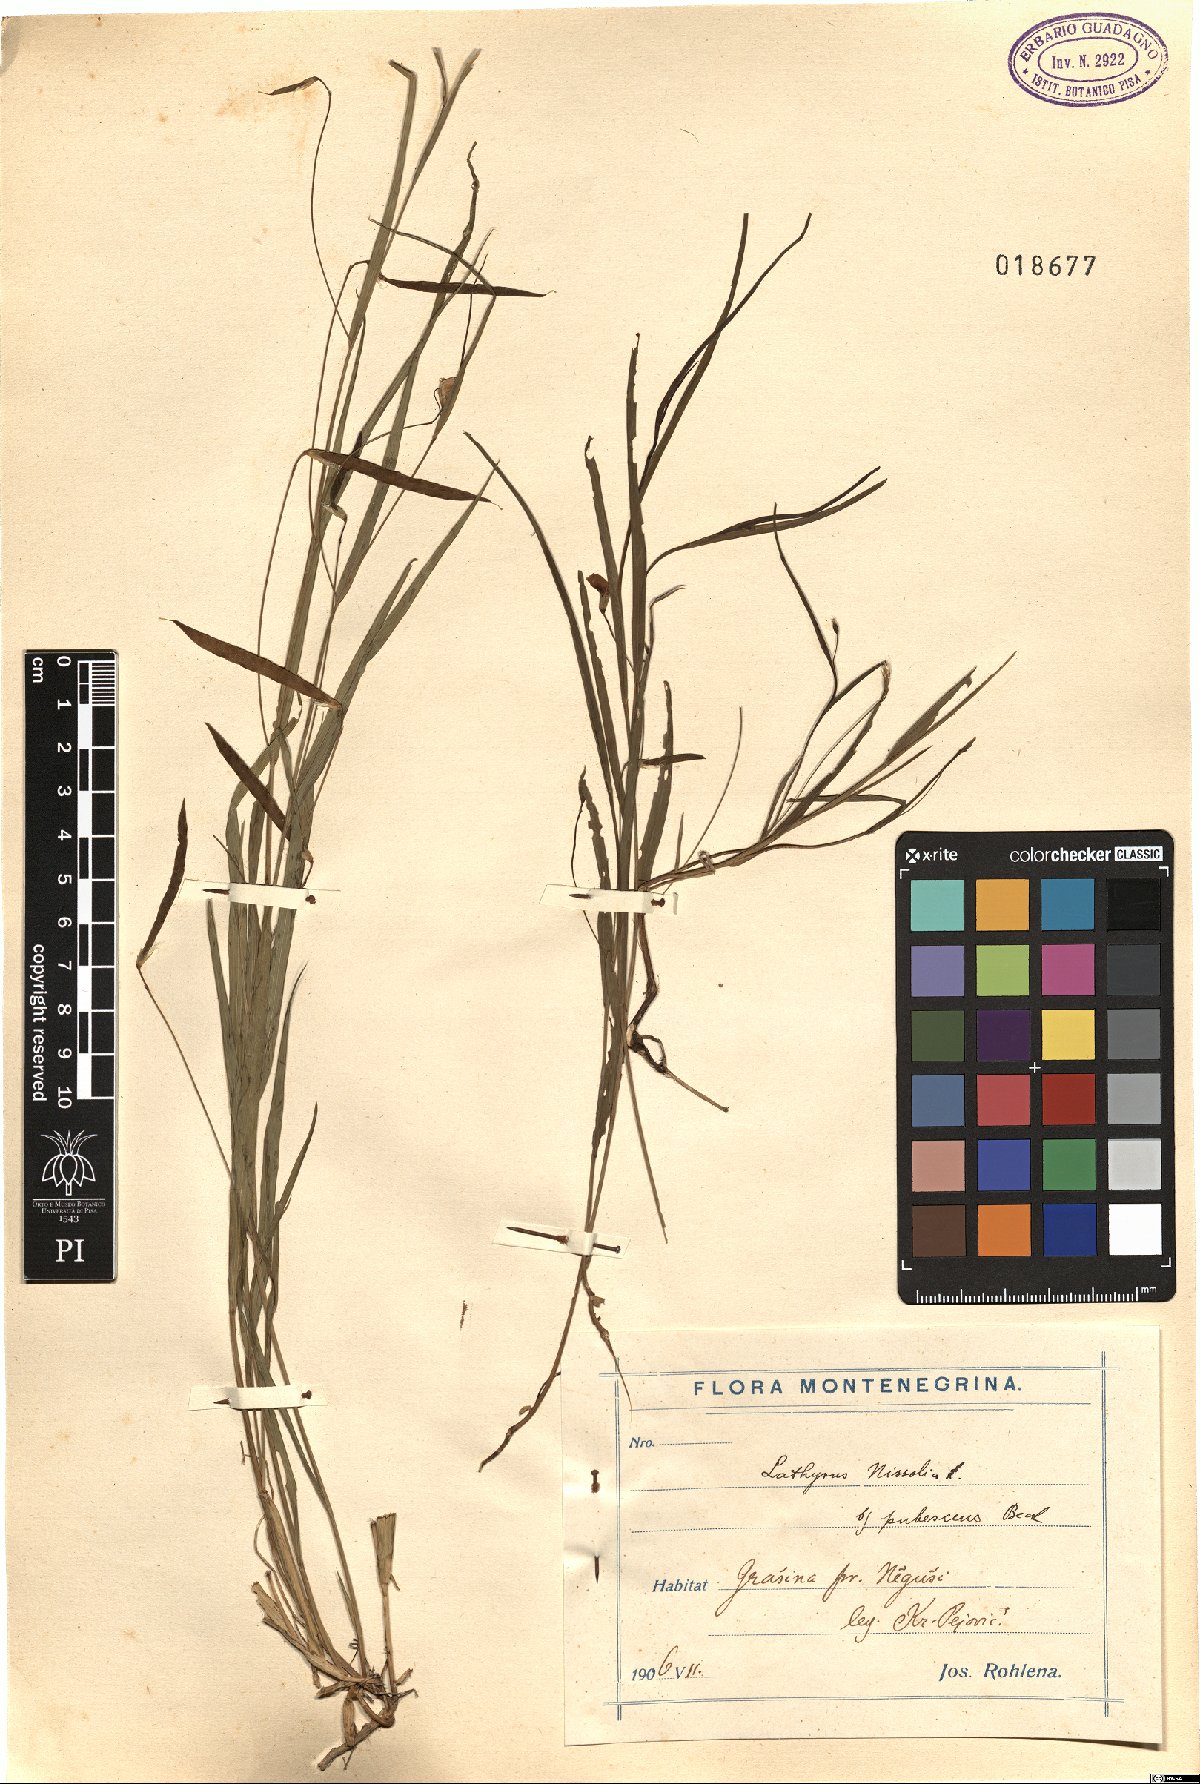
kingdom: Plantae
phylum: Tracheophyta
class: Magnoliopsida
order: Fabales
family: Fabaceae
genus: Lathyrus
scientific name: Lathyrus nissolia
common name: Grass vetchling
